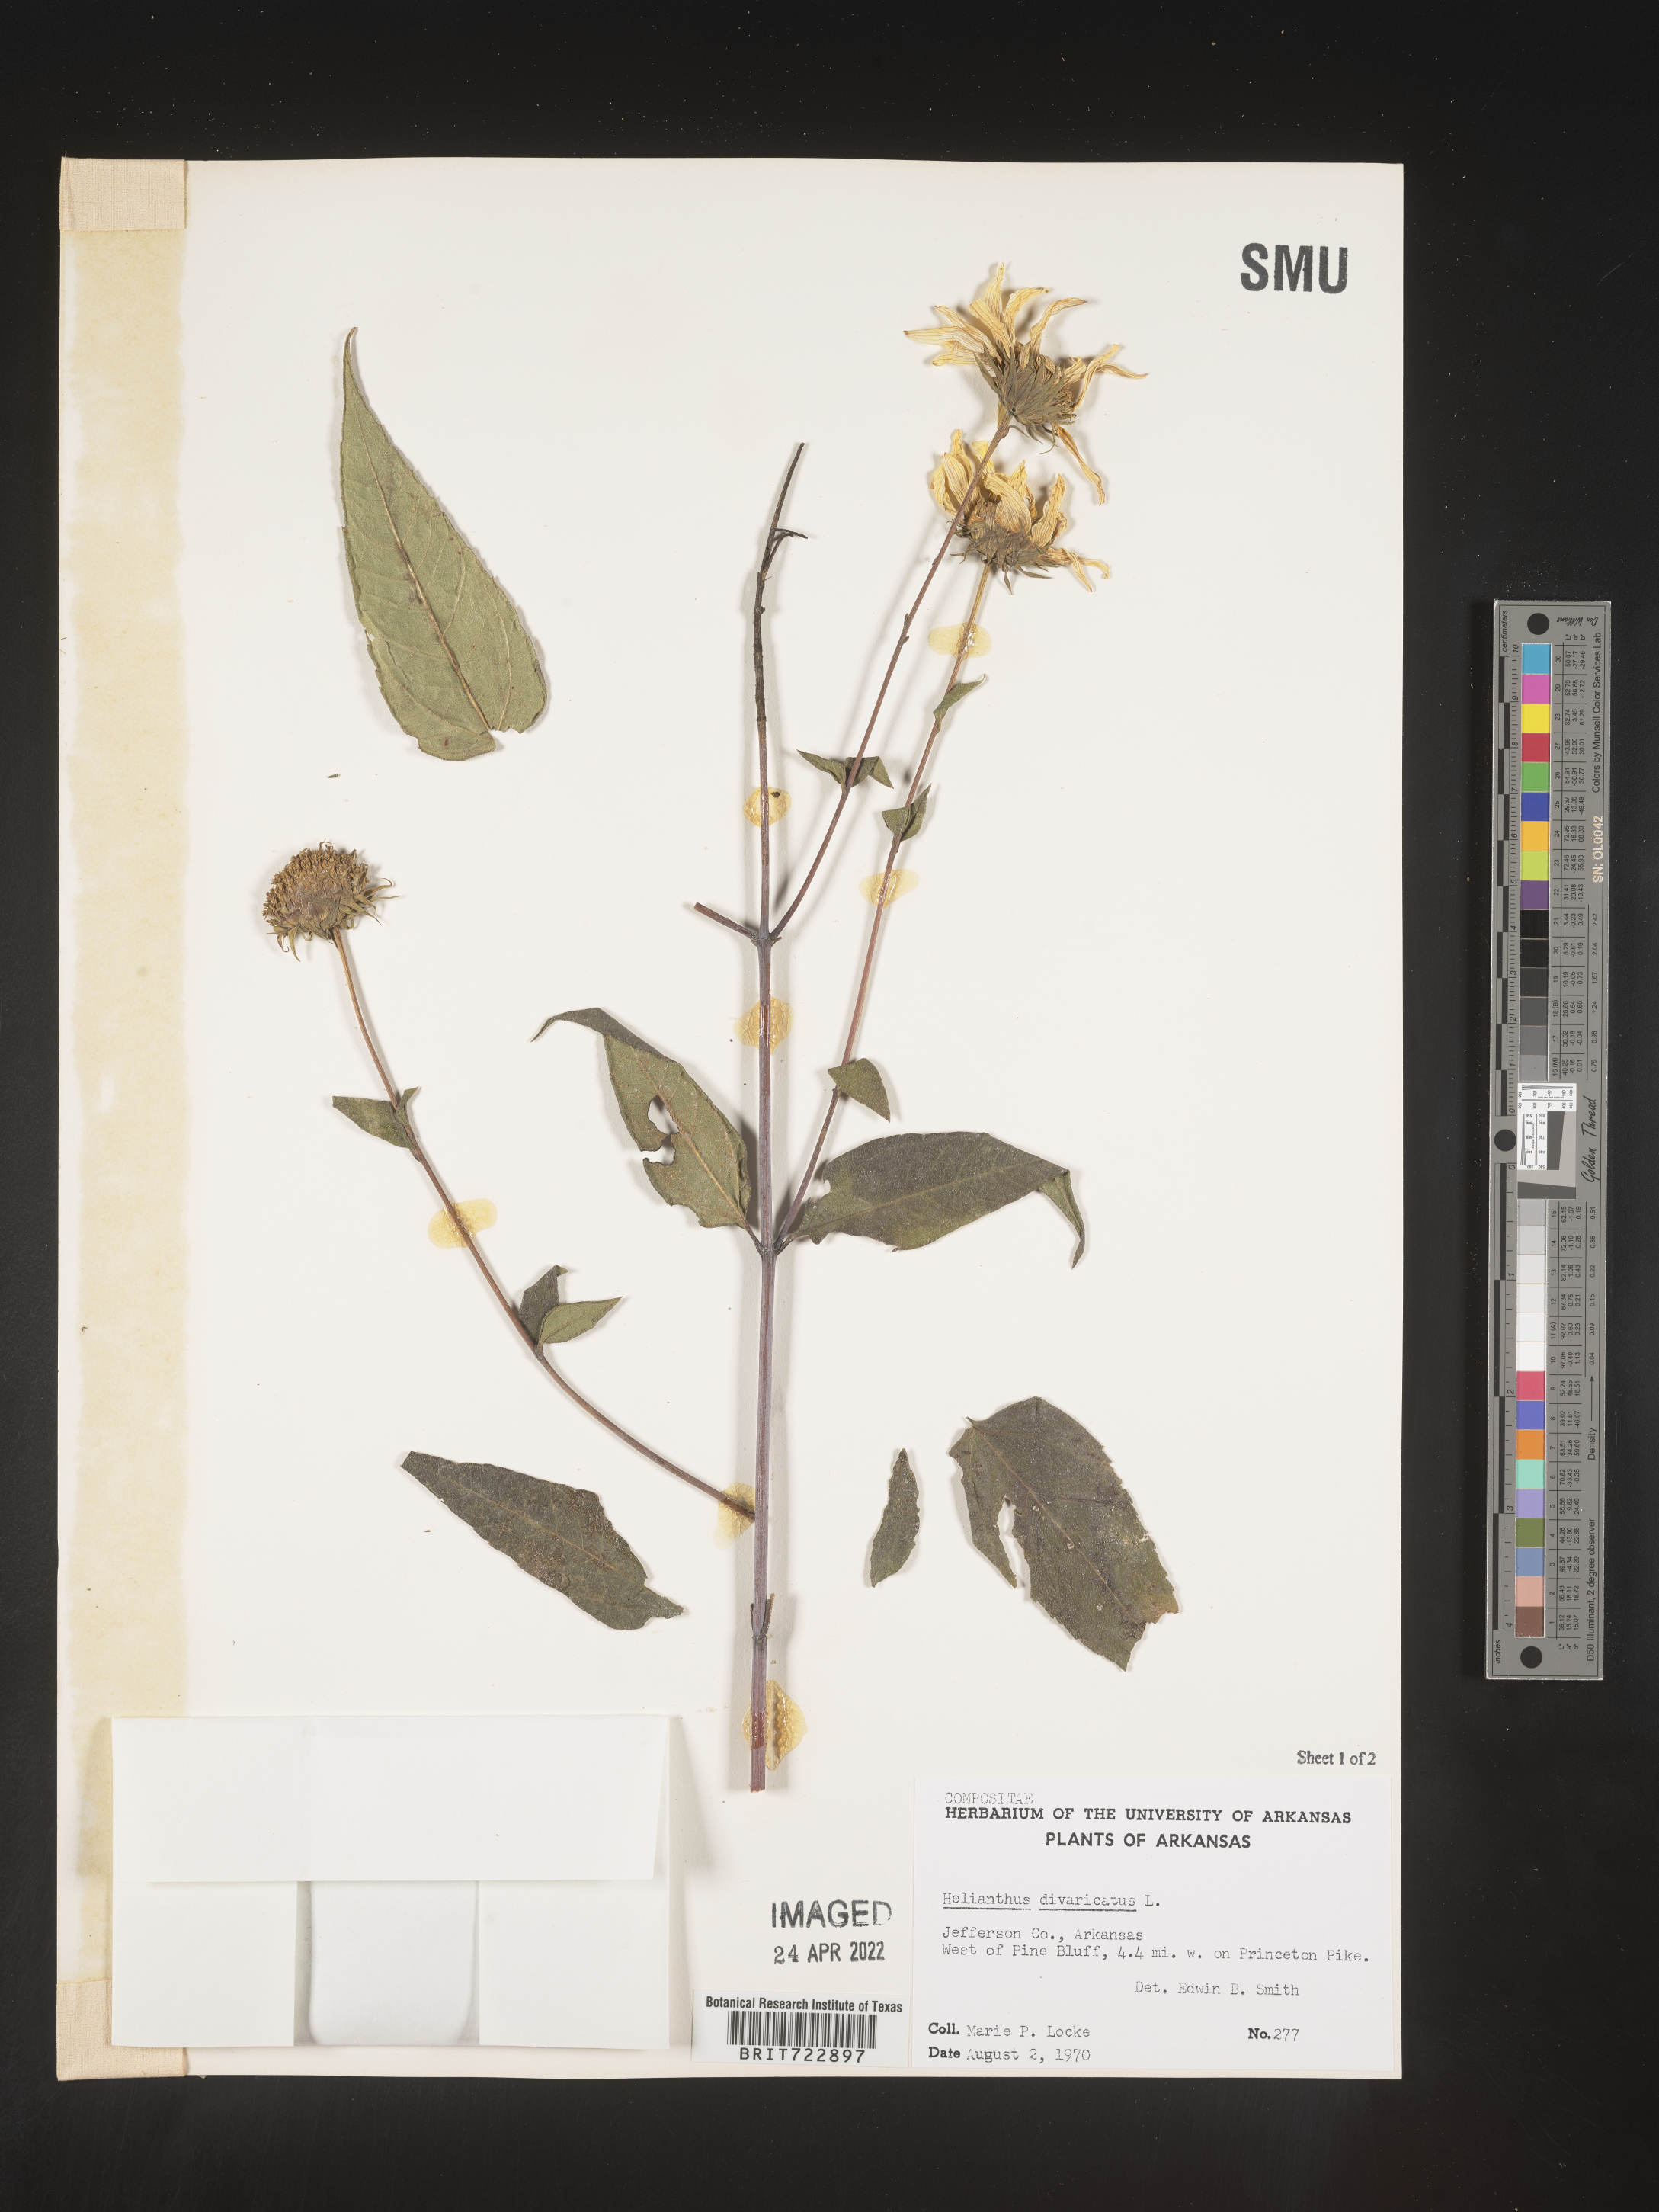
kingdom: Plantae
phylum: Tracheophyta
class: Magnoliopsida
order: Asterales
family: Asteraceae
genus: Helianthus
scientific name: Helianthus divaricatus
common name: Divergent sunflower
